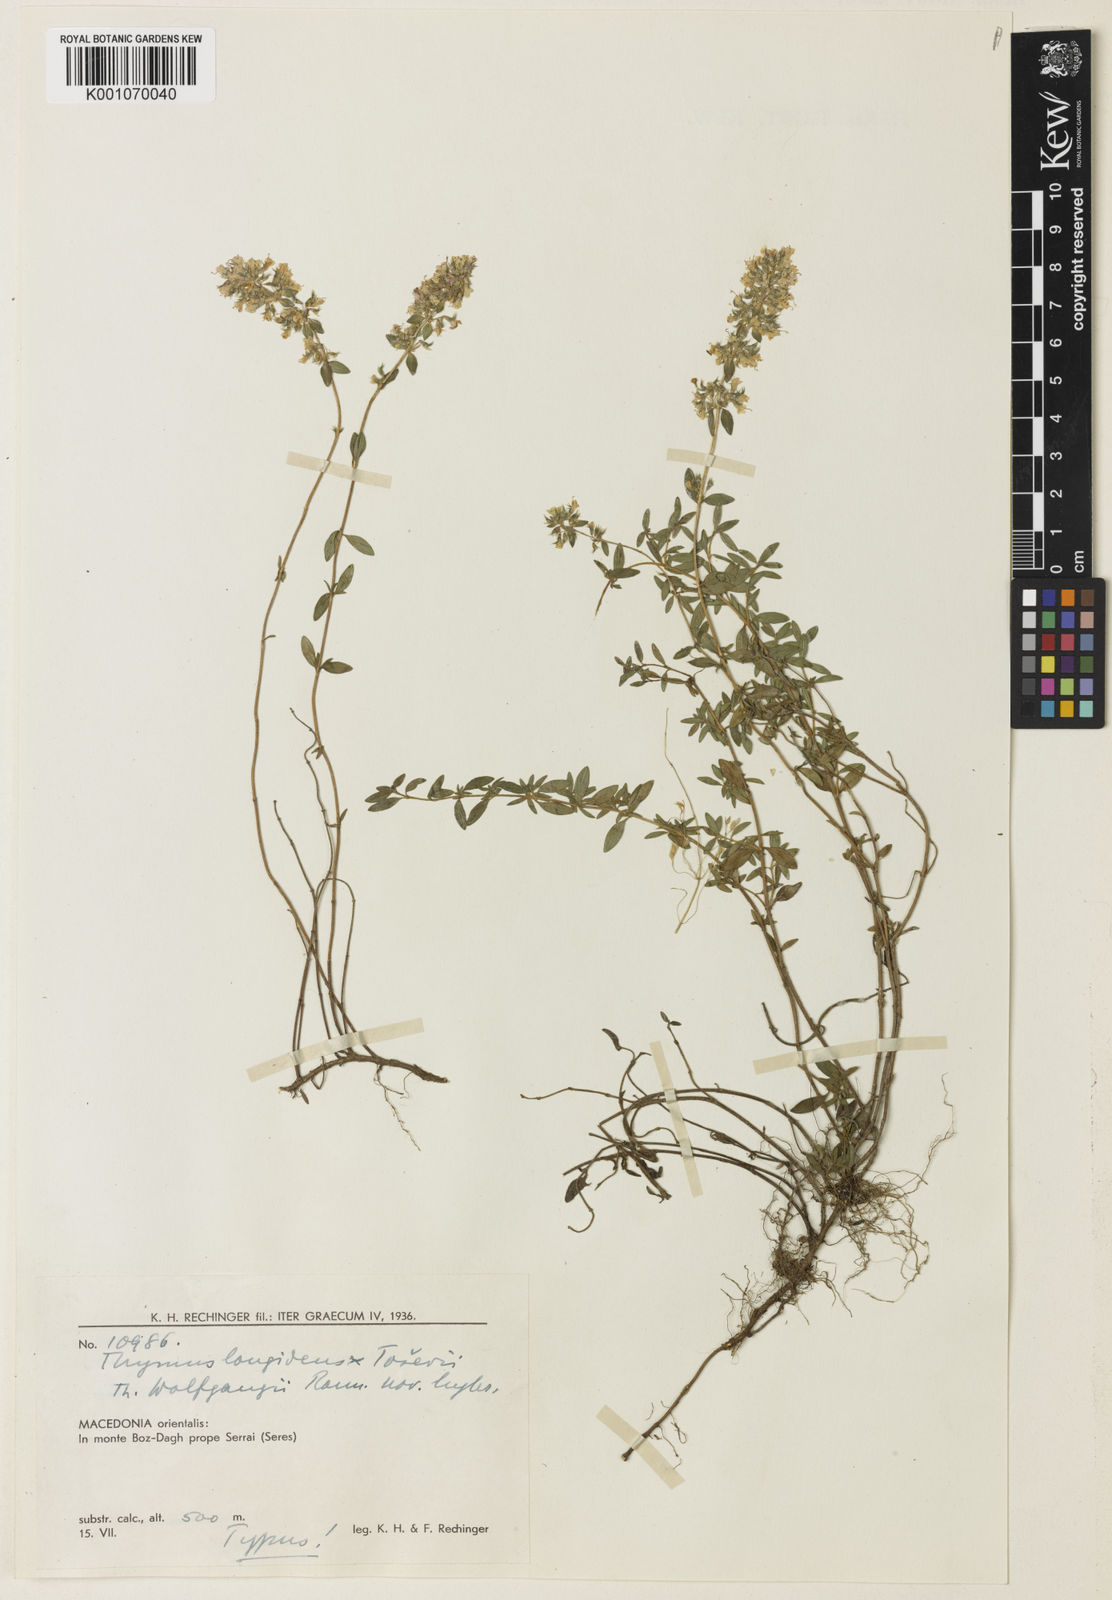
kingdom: Plantae
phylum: Tracheophyta
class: Magnoliopsida
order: Lamiales
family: Lamiaceae
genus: Thymus
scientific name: Thymus thracicus
